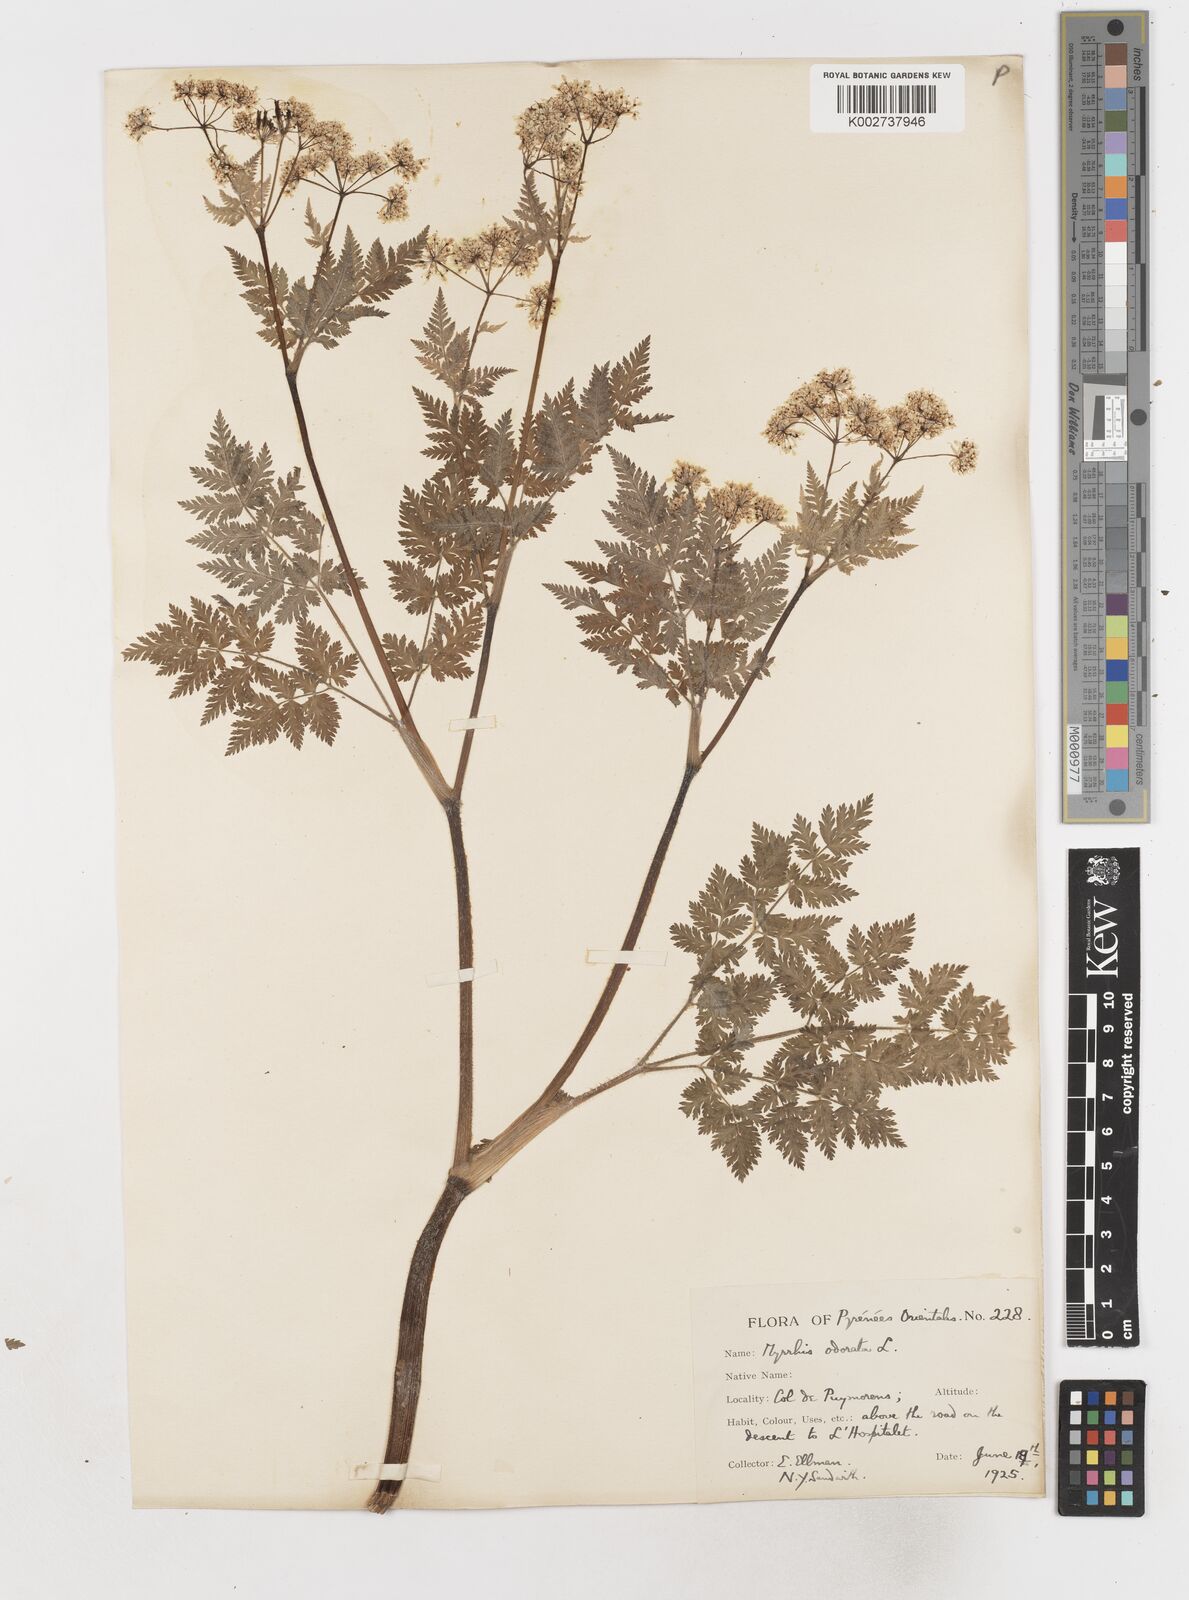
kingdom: Plantae
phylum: Tracheophyta
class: Magnoliopsida
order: Apiales
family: Apiaceae
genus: Myrrhis
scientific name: Myrrhis odorata
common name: Sweet cicely
